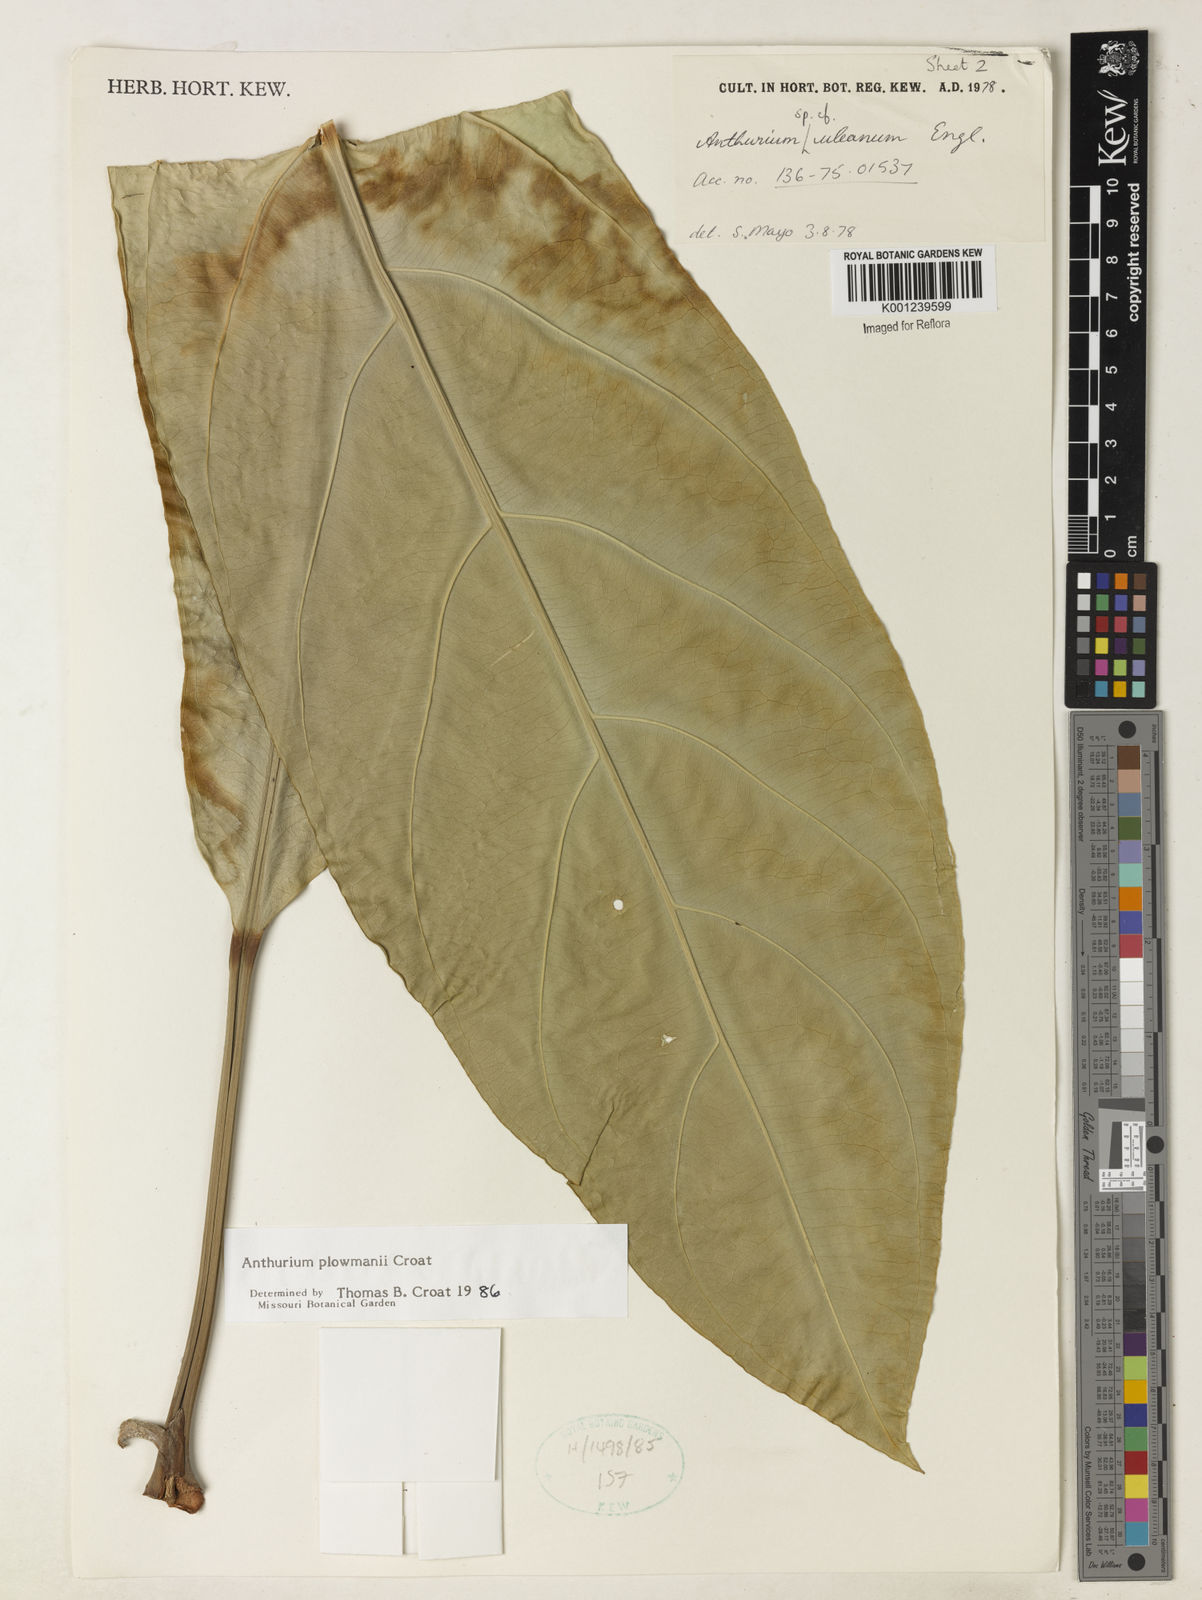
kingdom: Plantae
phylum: Tracheophyta
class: Liliopsida
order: Alismatales
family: Araceae
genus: Anthurium
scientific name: Anthurium plowmanii
